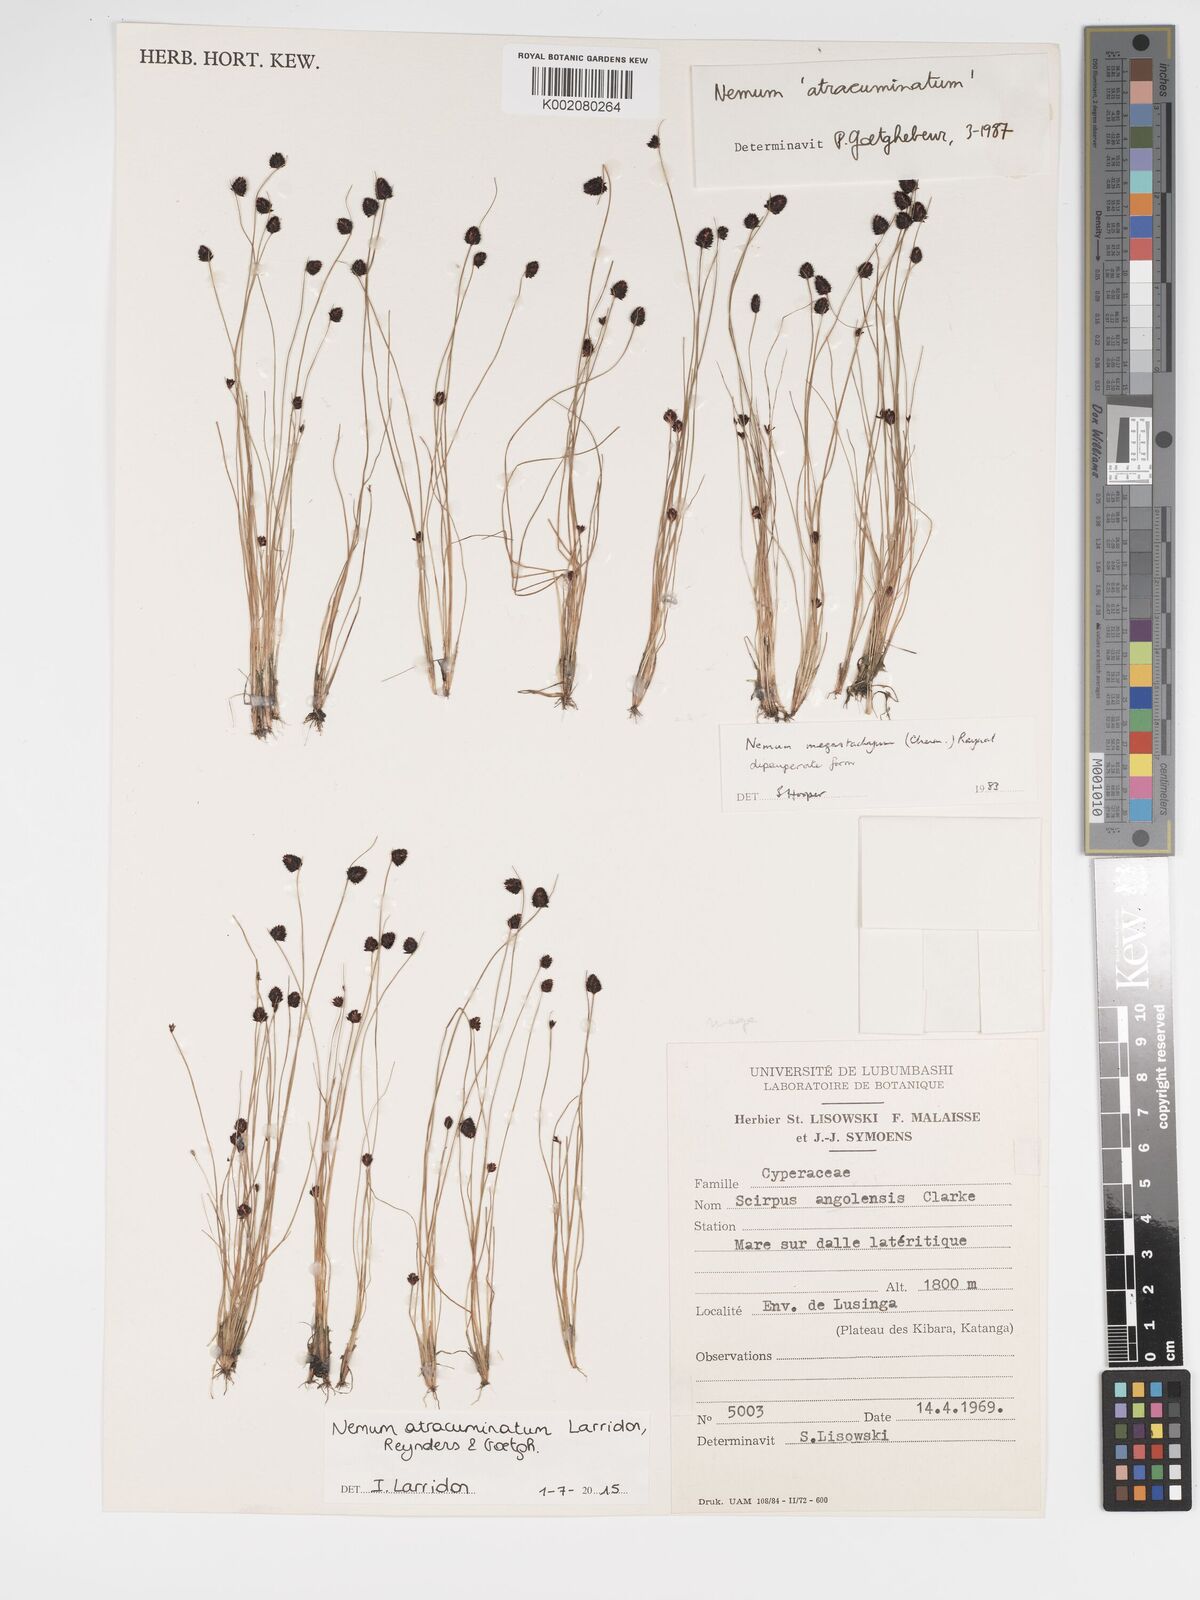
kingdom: Plantae
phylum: Tracheophyta
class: Liliopsida
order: Poales
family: Cyperaceae
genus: Bulbostylis
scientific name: Bulbostylis atracuminata
